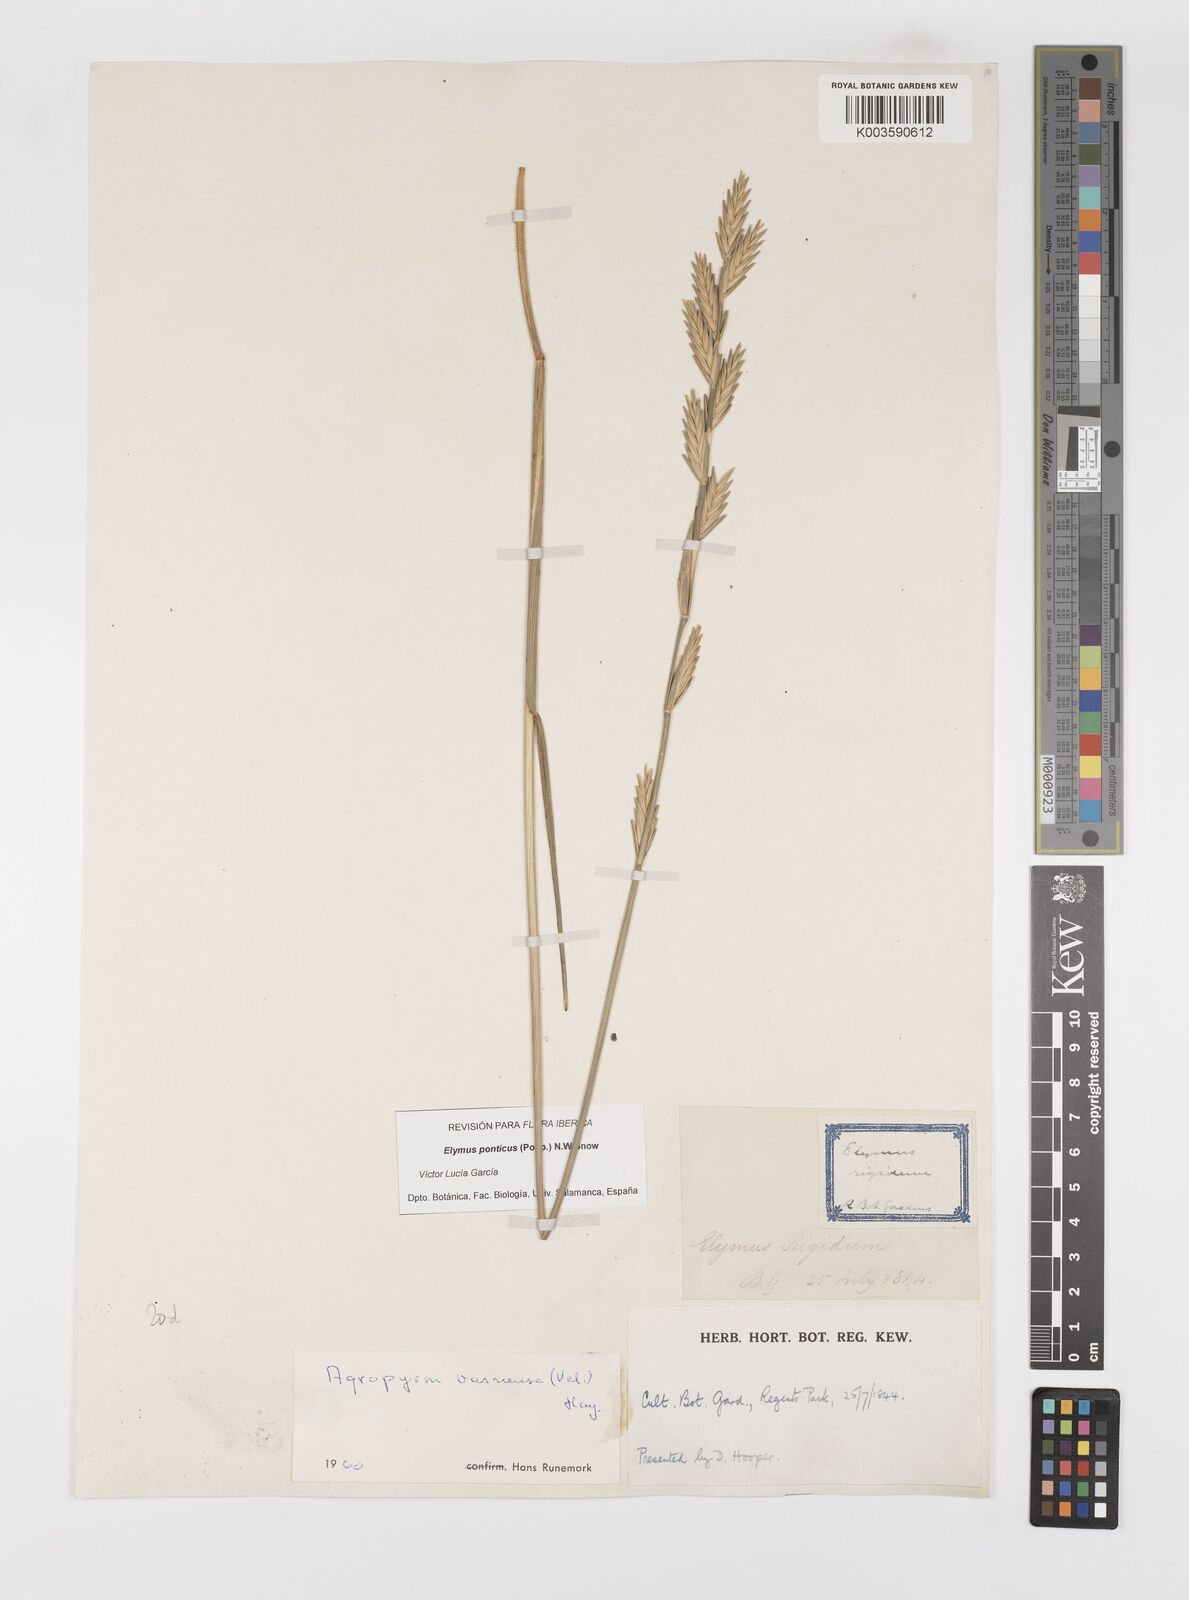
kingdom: Plantae
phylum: Tracheophyta
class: Liliopsida
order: Poales
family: Poaceae
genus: Thinopyrum
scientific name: Thinopyrum elongatum
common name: Tall wheatgrass
